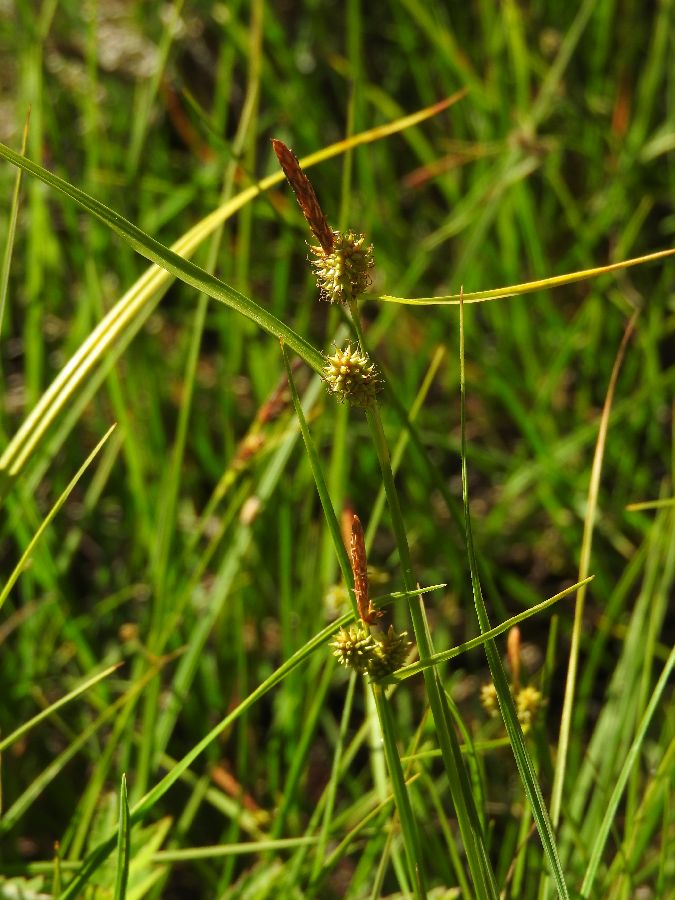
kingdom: Plantae
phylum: Tracheophyta
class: Liliopsida
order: Poales
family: Cyperaceae
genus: Carex
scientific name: Carex oederi
